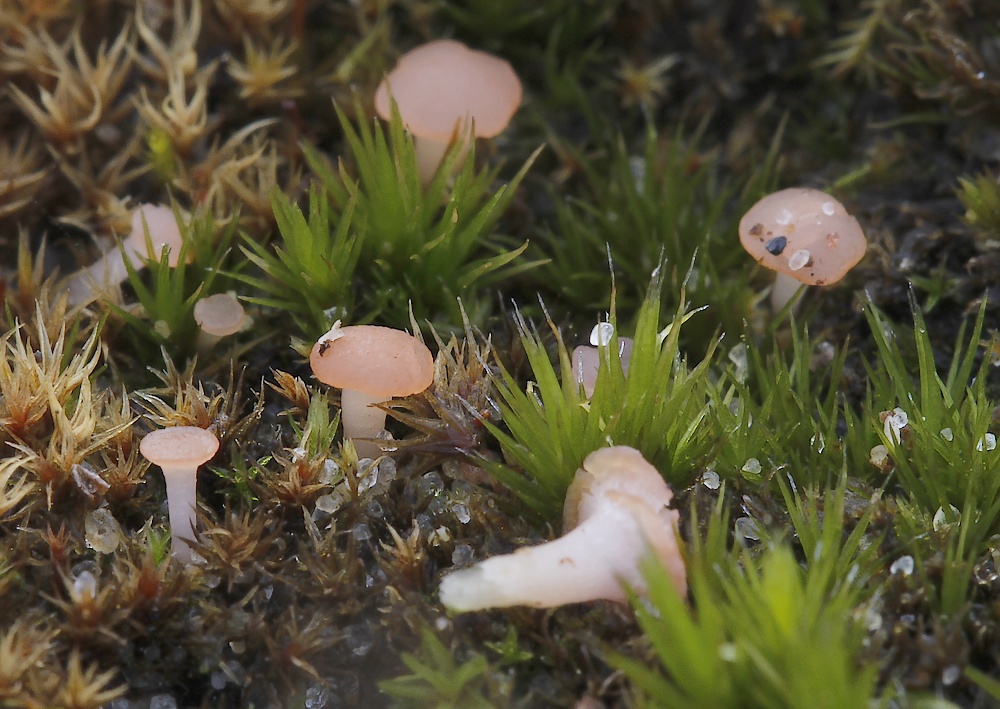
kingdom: Fungi
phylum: Ascomycota
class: Leotiomycetes
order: Helotiales
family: Hyaloscyphaceae
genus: Roseodiscus
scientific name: Roseodiscus formosus
